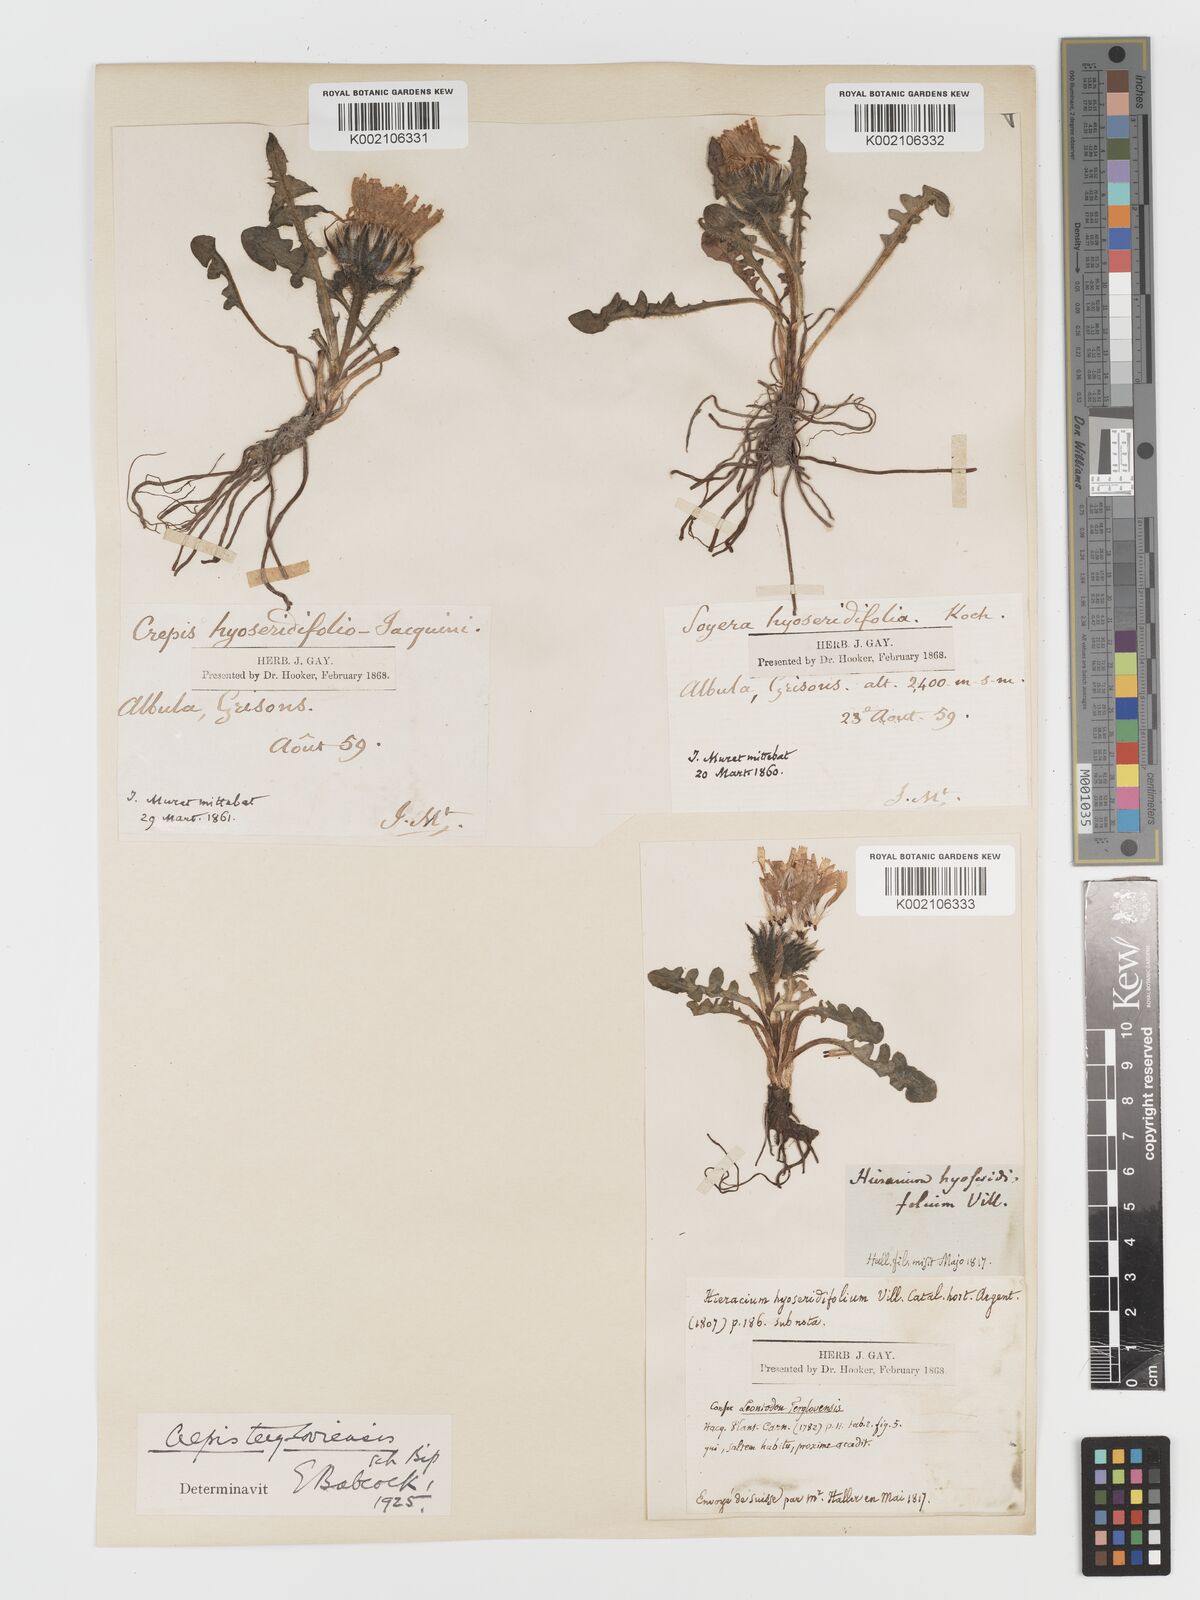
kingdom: Plantae
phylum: Tracheophyta
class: Magnoliopsida
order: Asterales
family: Asteraceae
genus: Crepis
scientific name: Crepis
